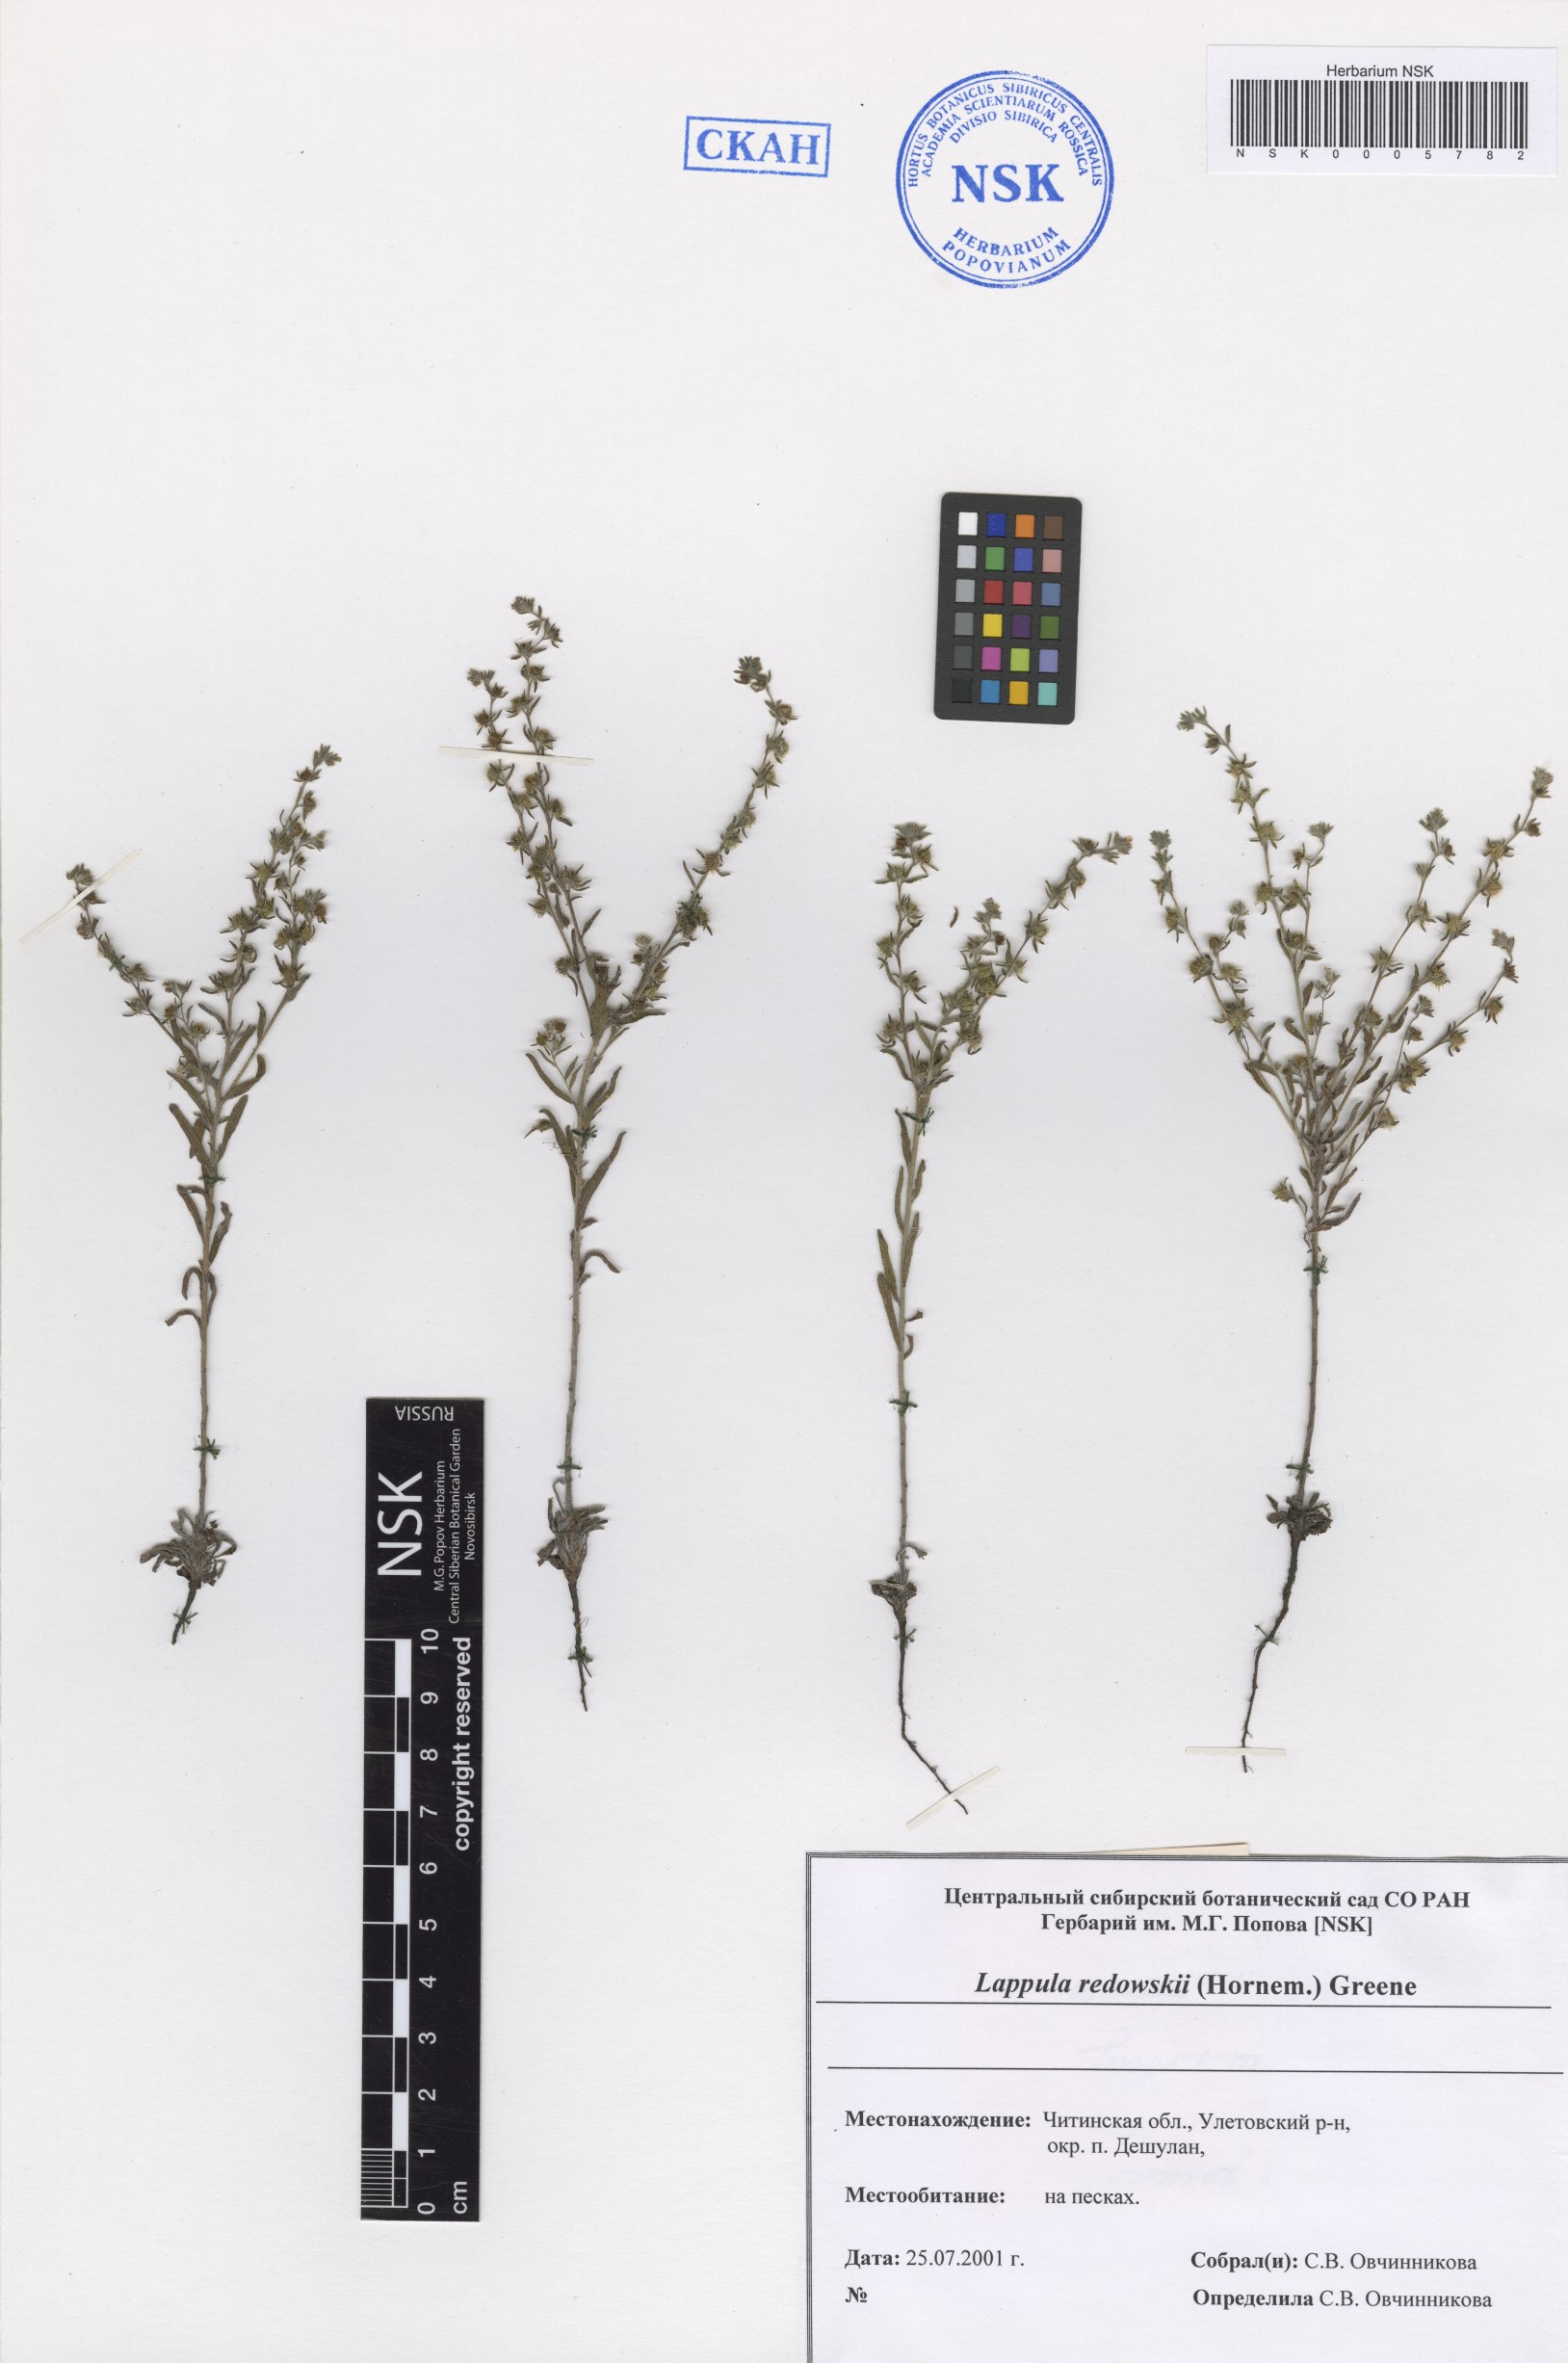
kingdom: Plantae
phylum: Tracheophyta
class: Magnoliopsida
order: Boraginales
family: Boraginaceae
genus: Lappula
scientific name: Lappula redowskii
